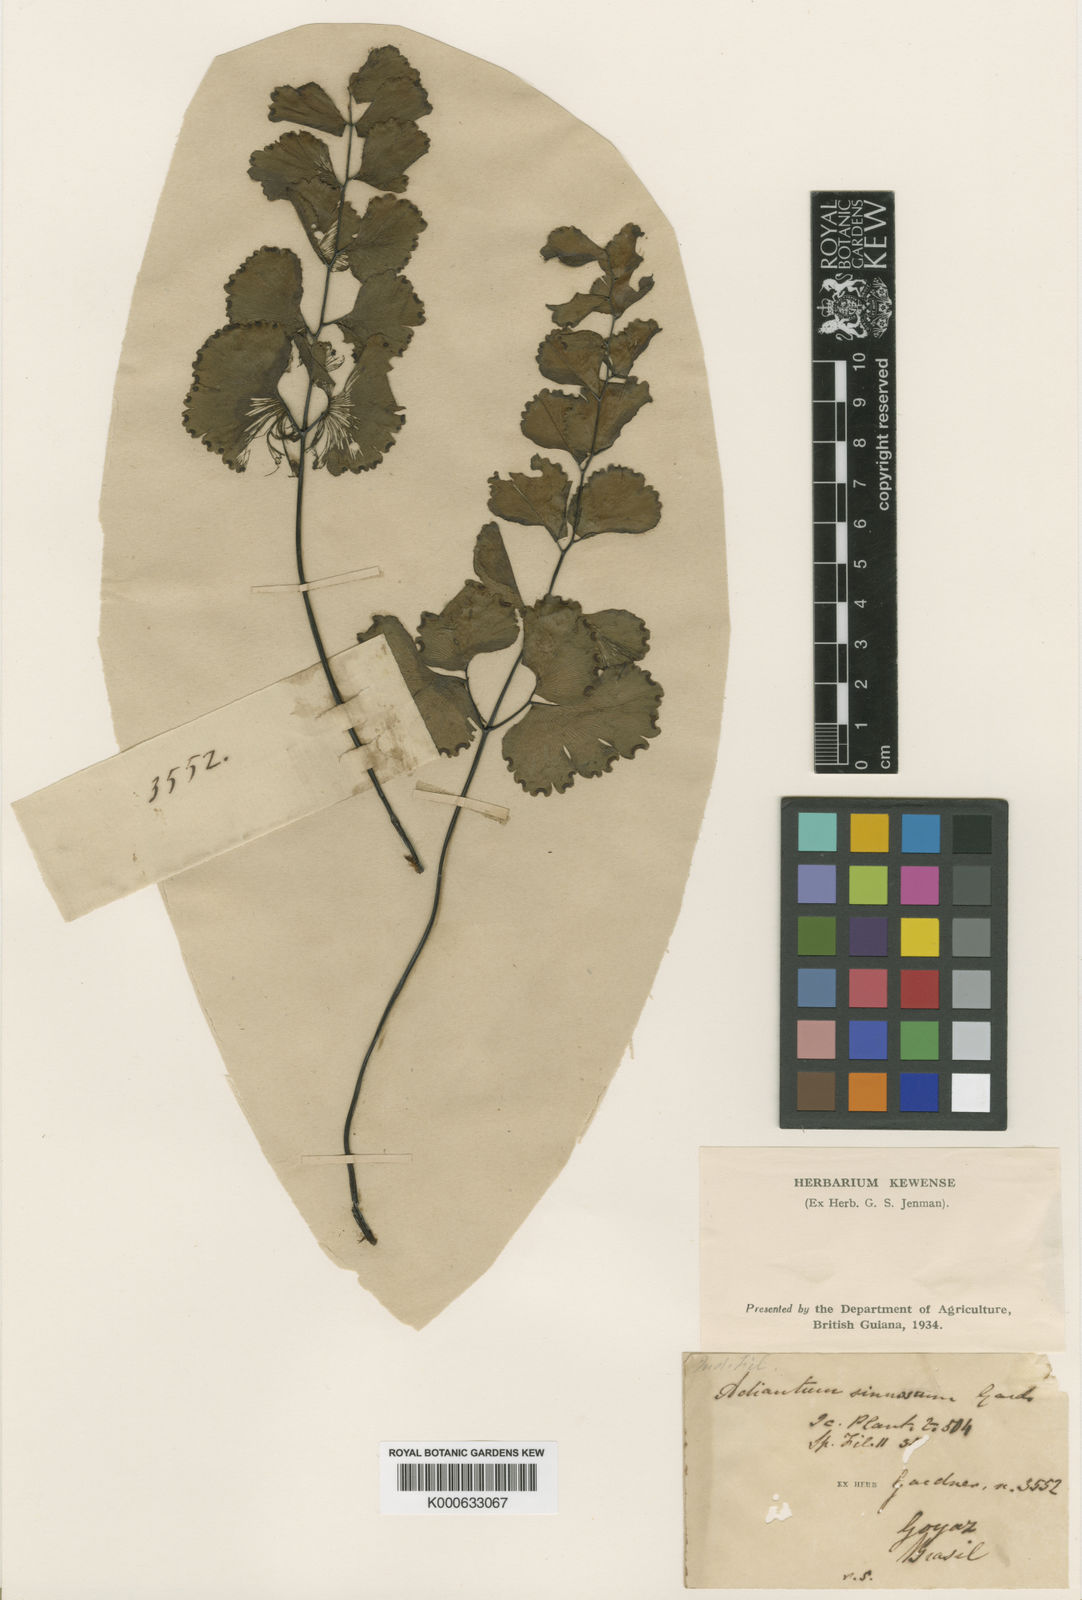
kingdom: Plantae
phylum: Tracheophyta
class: Polypodiopsida
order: Polypodiales
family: Pteridaceae
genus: Adiantum
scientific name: Adiantum sinuosum
